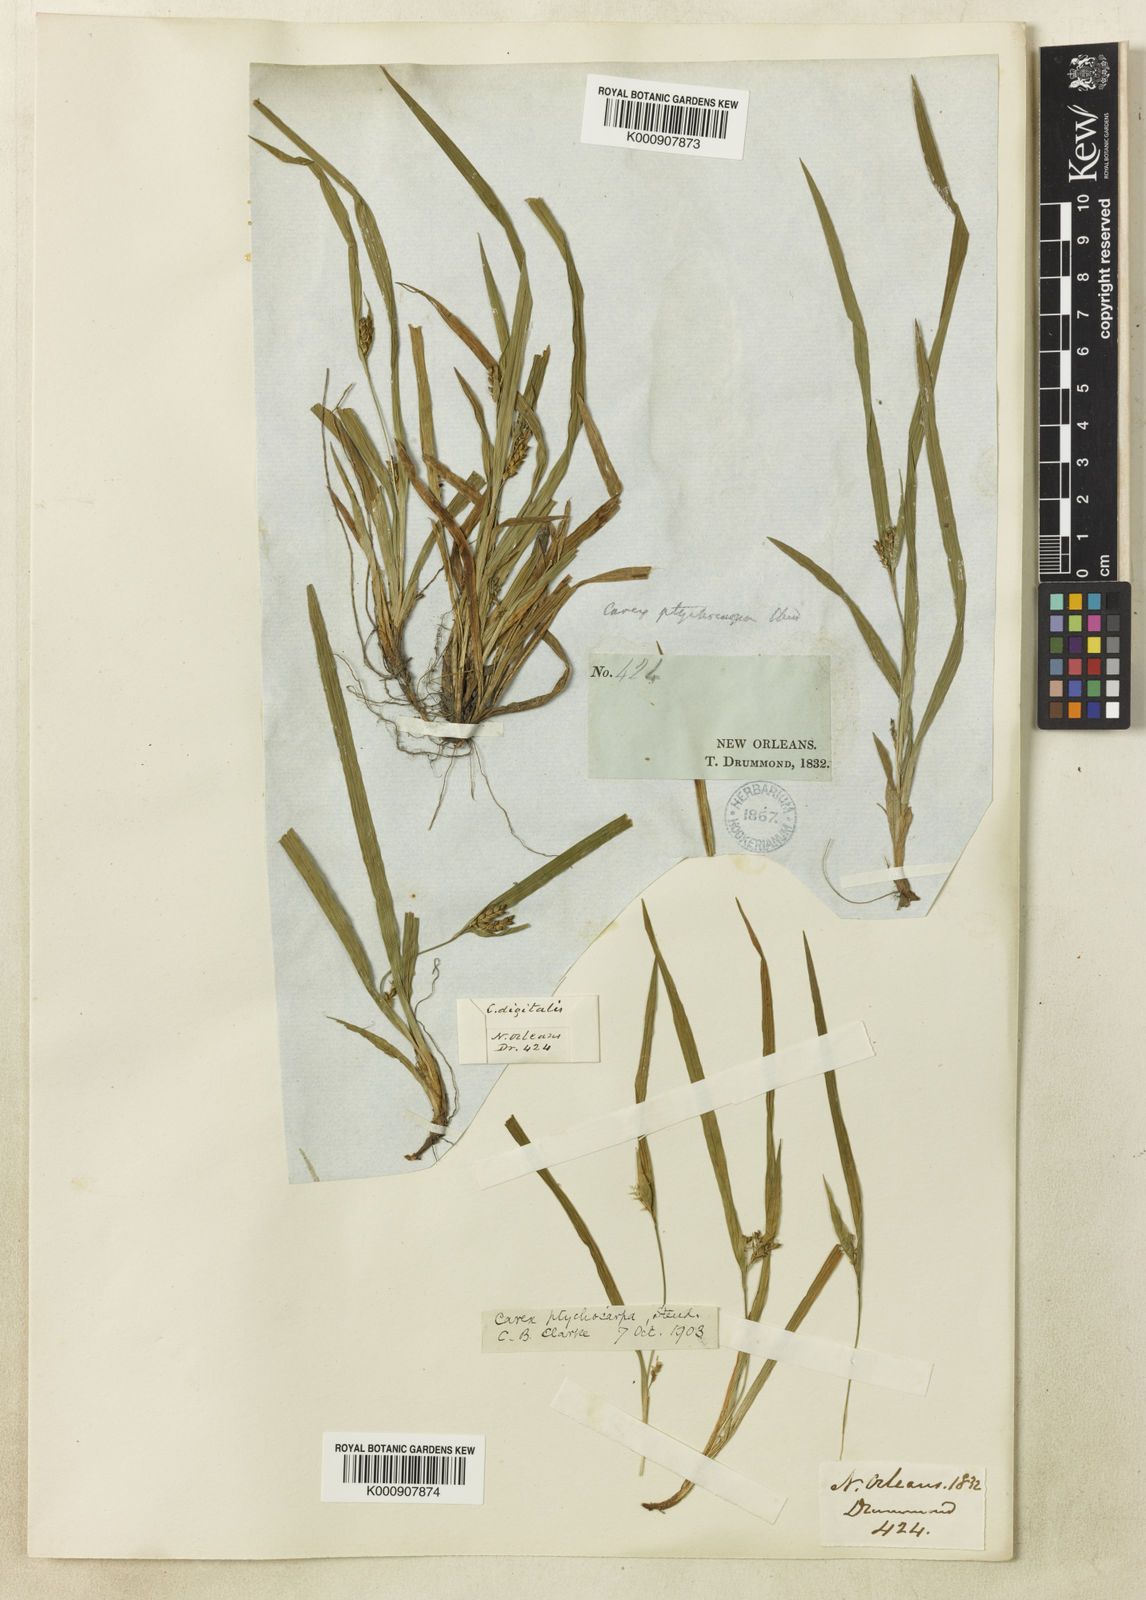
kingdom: Plantae
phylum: Tracheophyta
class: Liliopsida
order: Poales
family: Cyperaceae
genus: Carex
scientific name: Carex abscondita
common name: Thicket sedge
